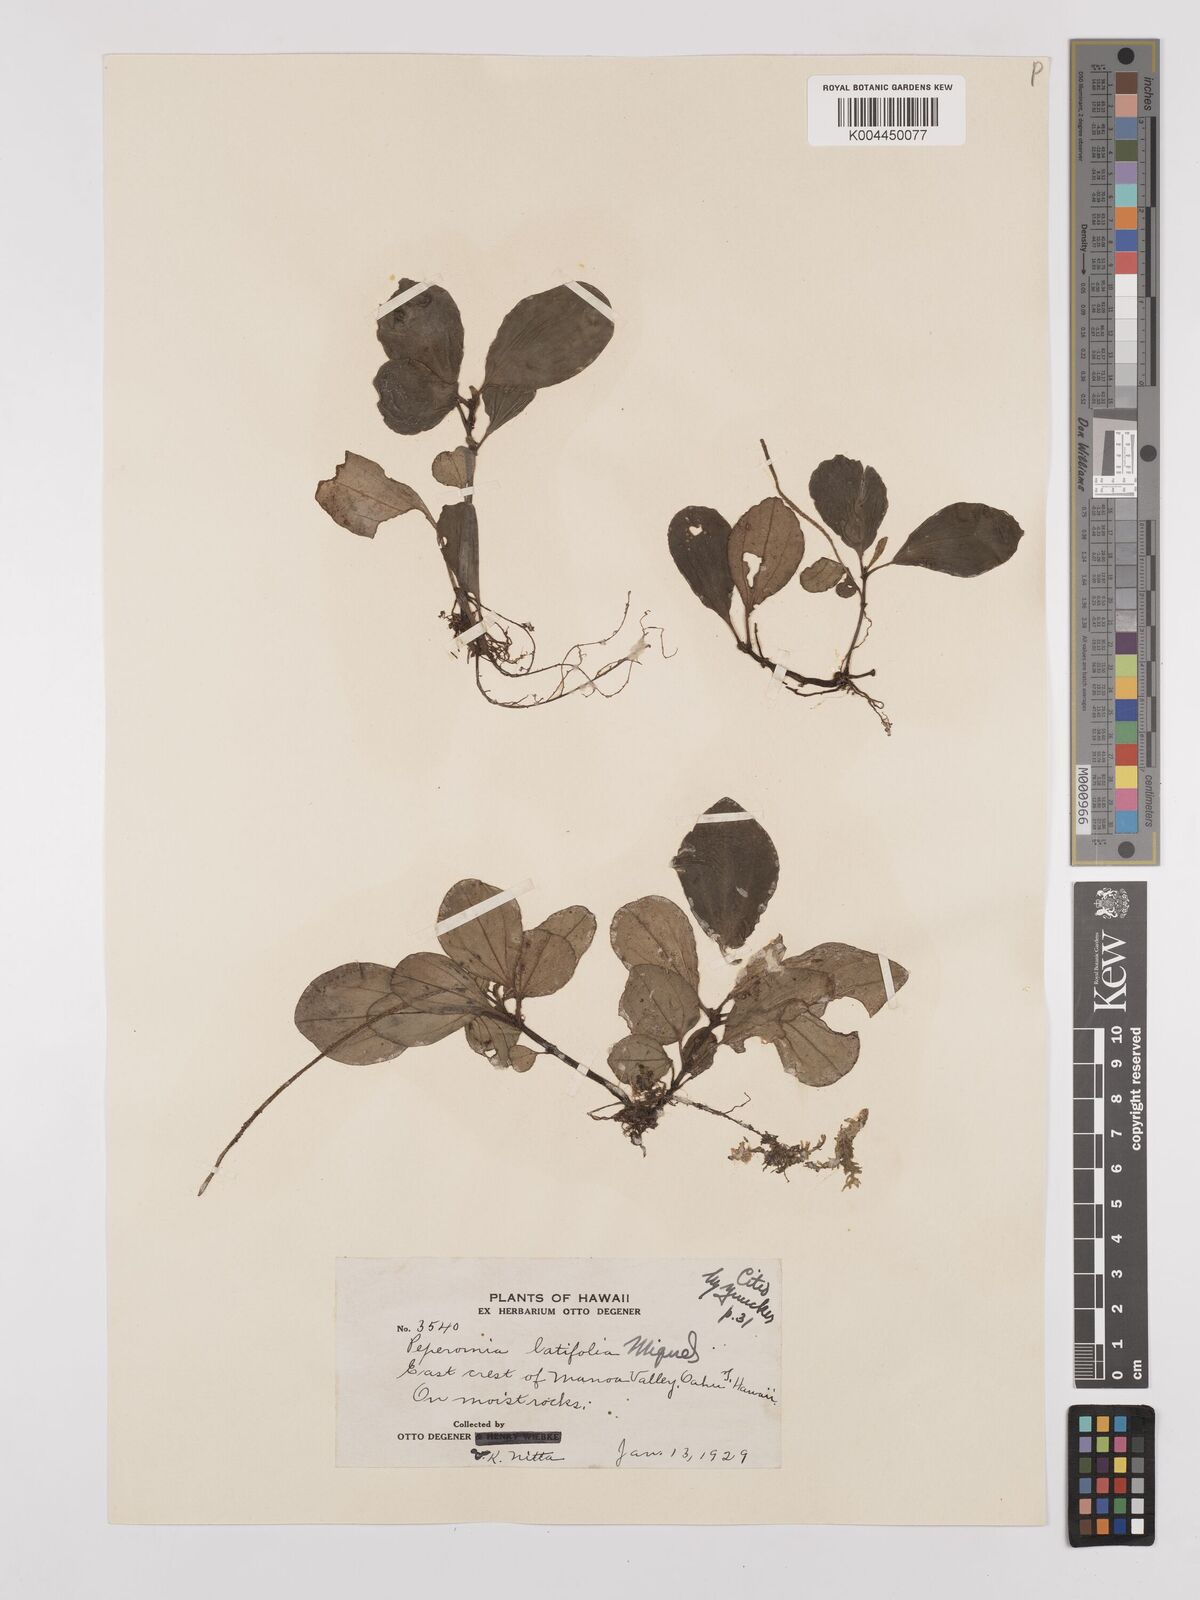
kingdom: Plantae
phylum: Tracheophyta
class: Magnoliopsida
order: Piperales
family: Piperaceae
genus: Peperomia
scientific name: Peperomia latifolia
